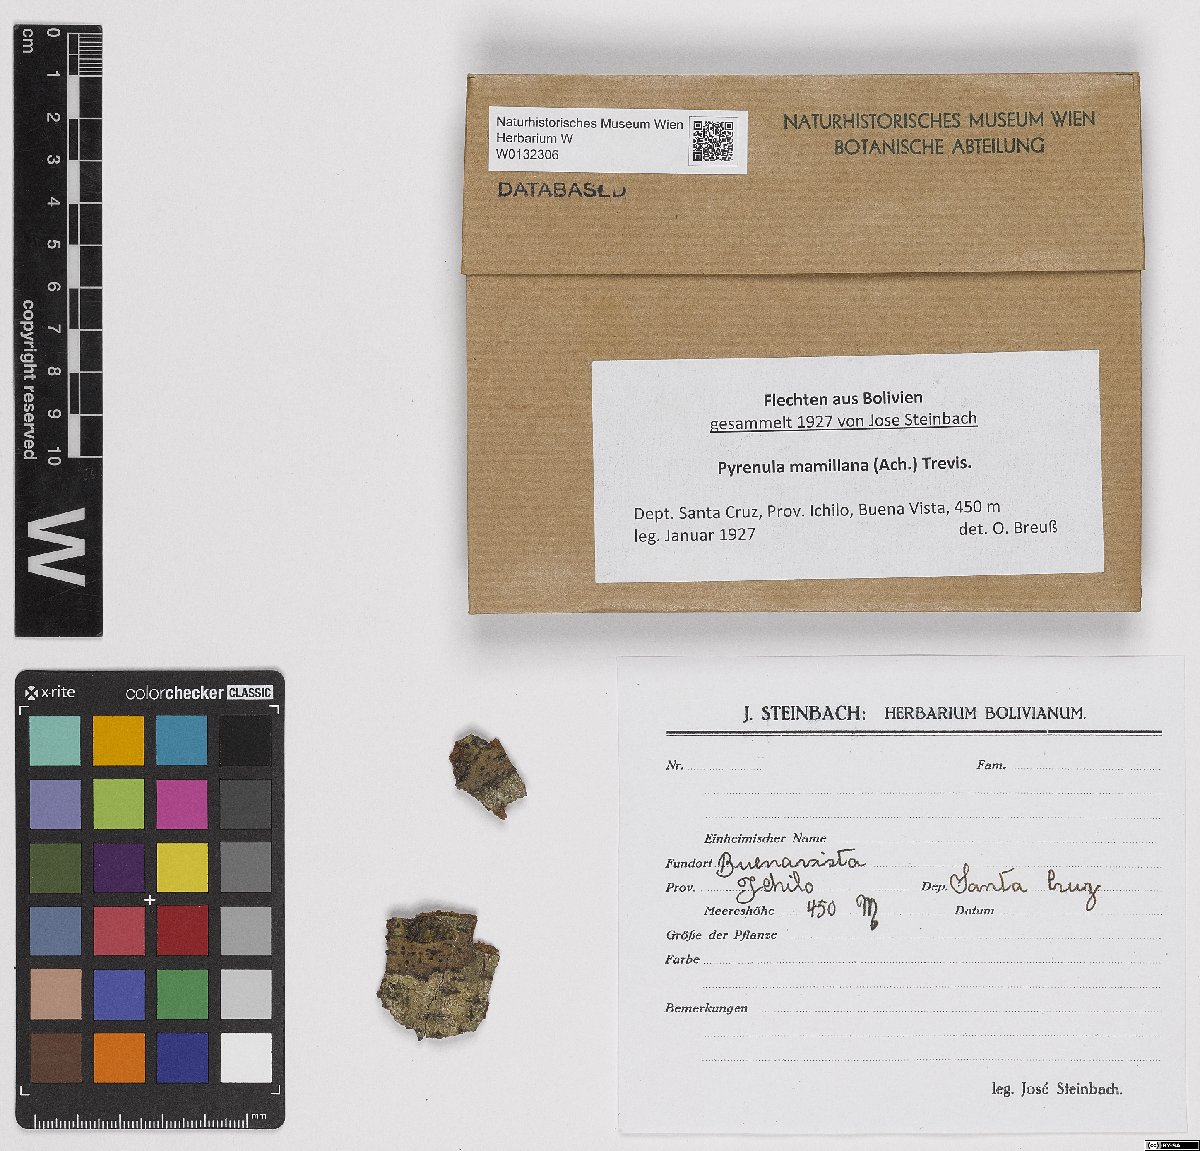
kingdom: Fungi
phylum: Ascomycota
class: Eurotiomycetes
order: Pyrenulales
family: Pyrenulaceae
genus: Pyrenula
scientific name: Pyrenula mamillana
